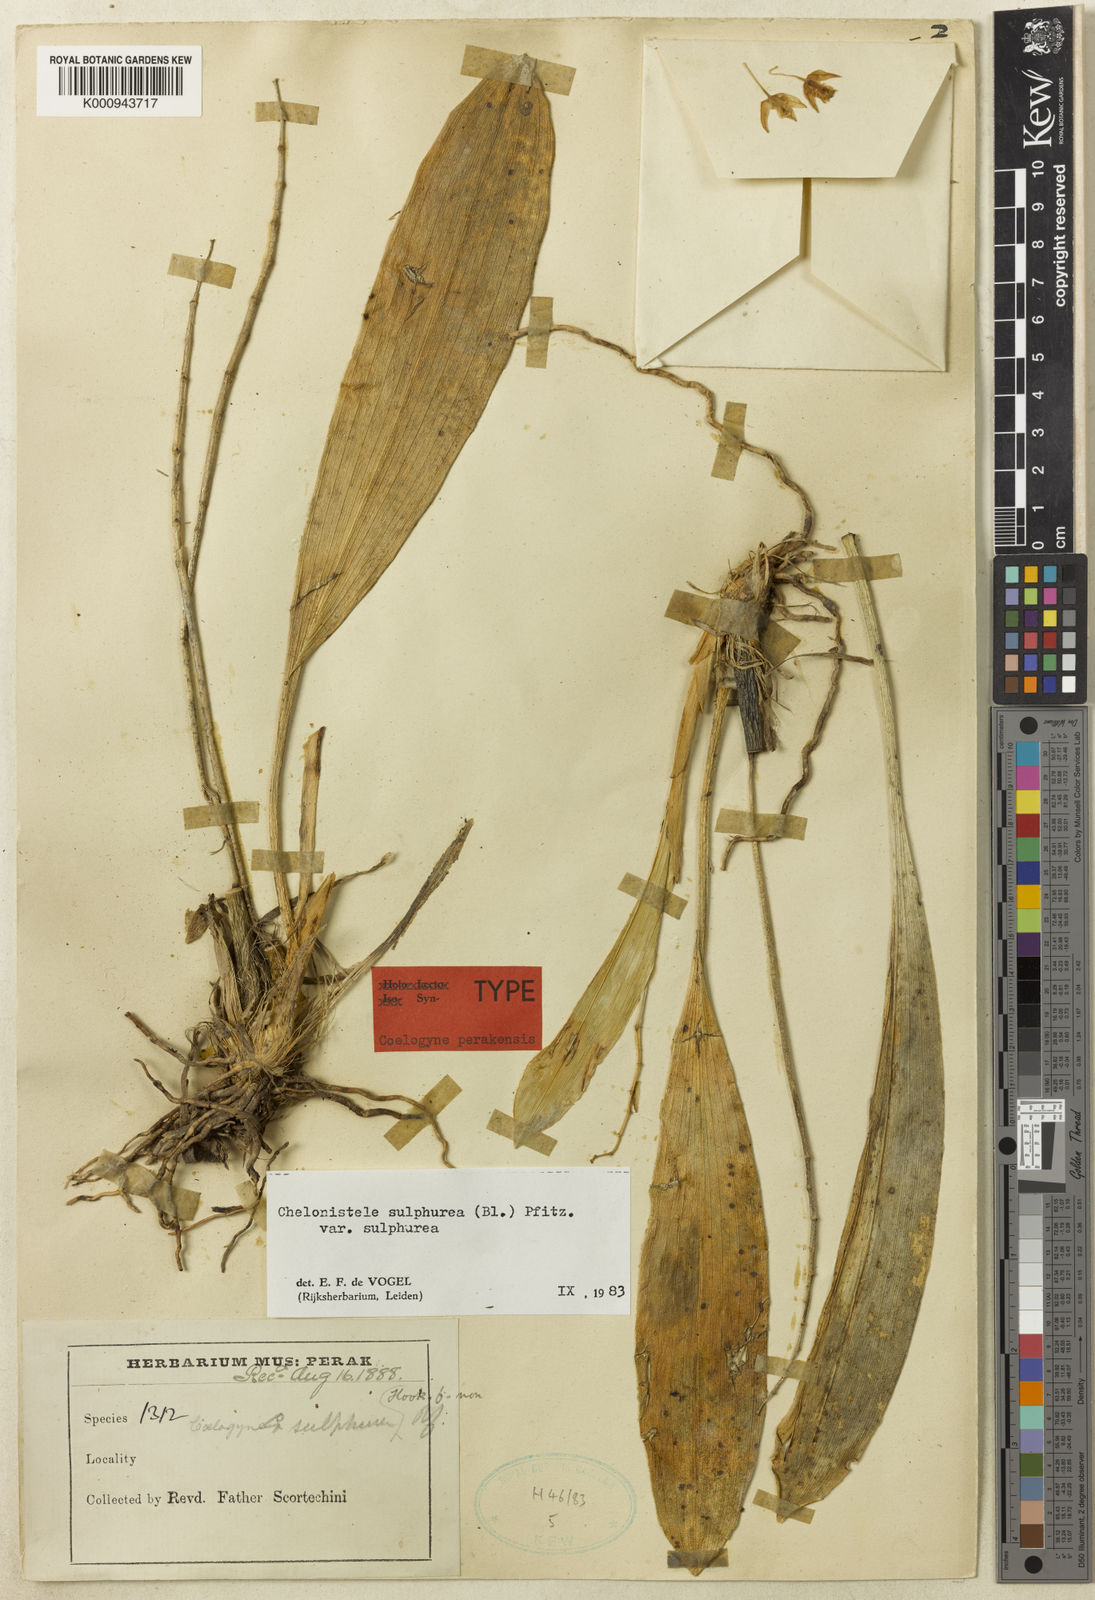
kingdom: Plantae
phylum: Tracheophyta
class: Liliopsida
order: Asparagales
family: Orchidaceae
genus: Coelogyne
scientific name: Coelogyne sulphurea
